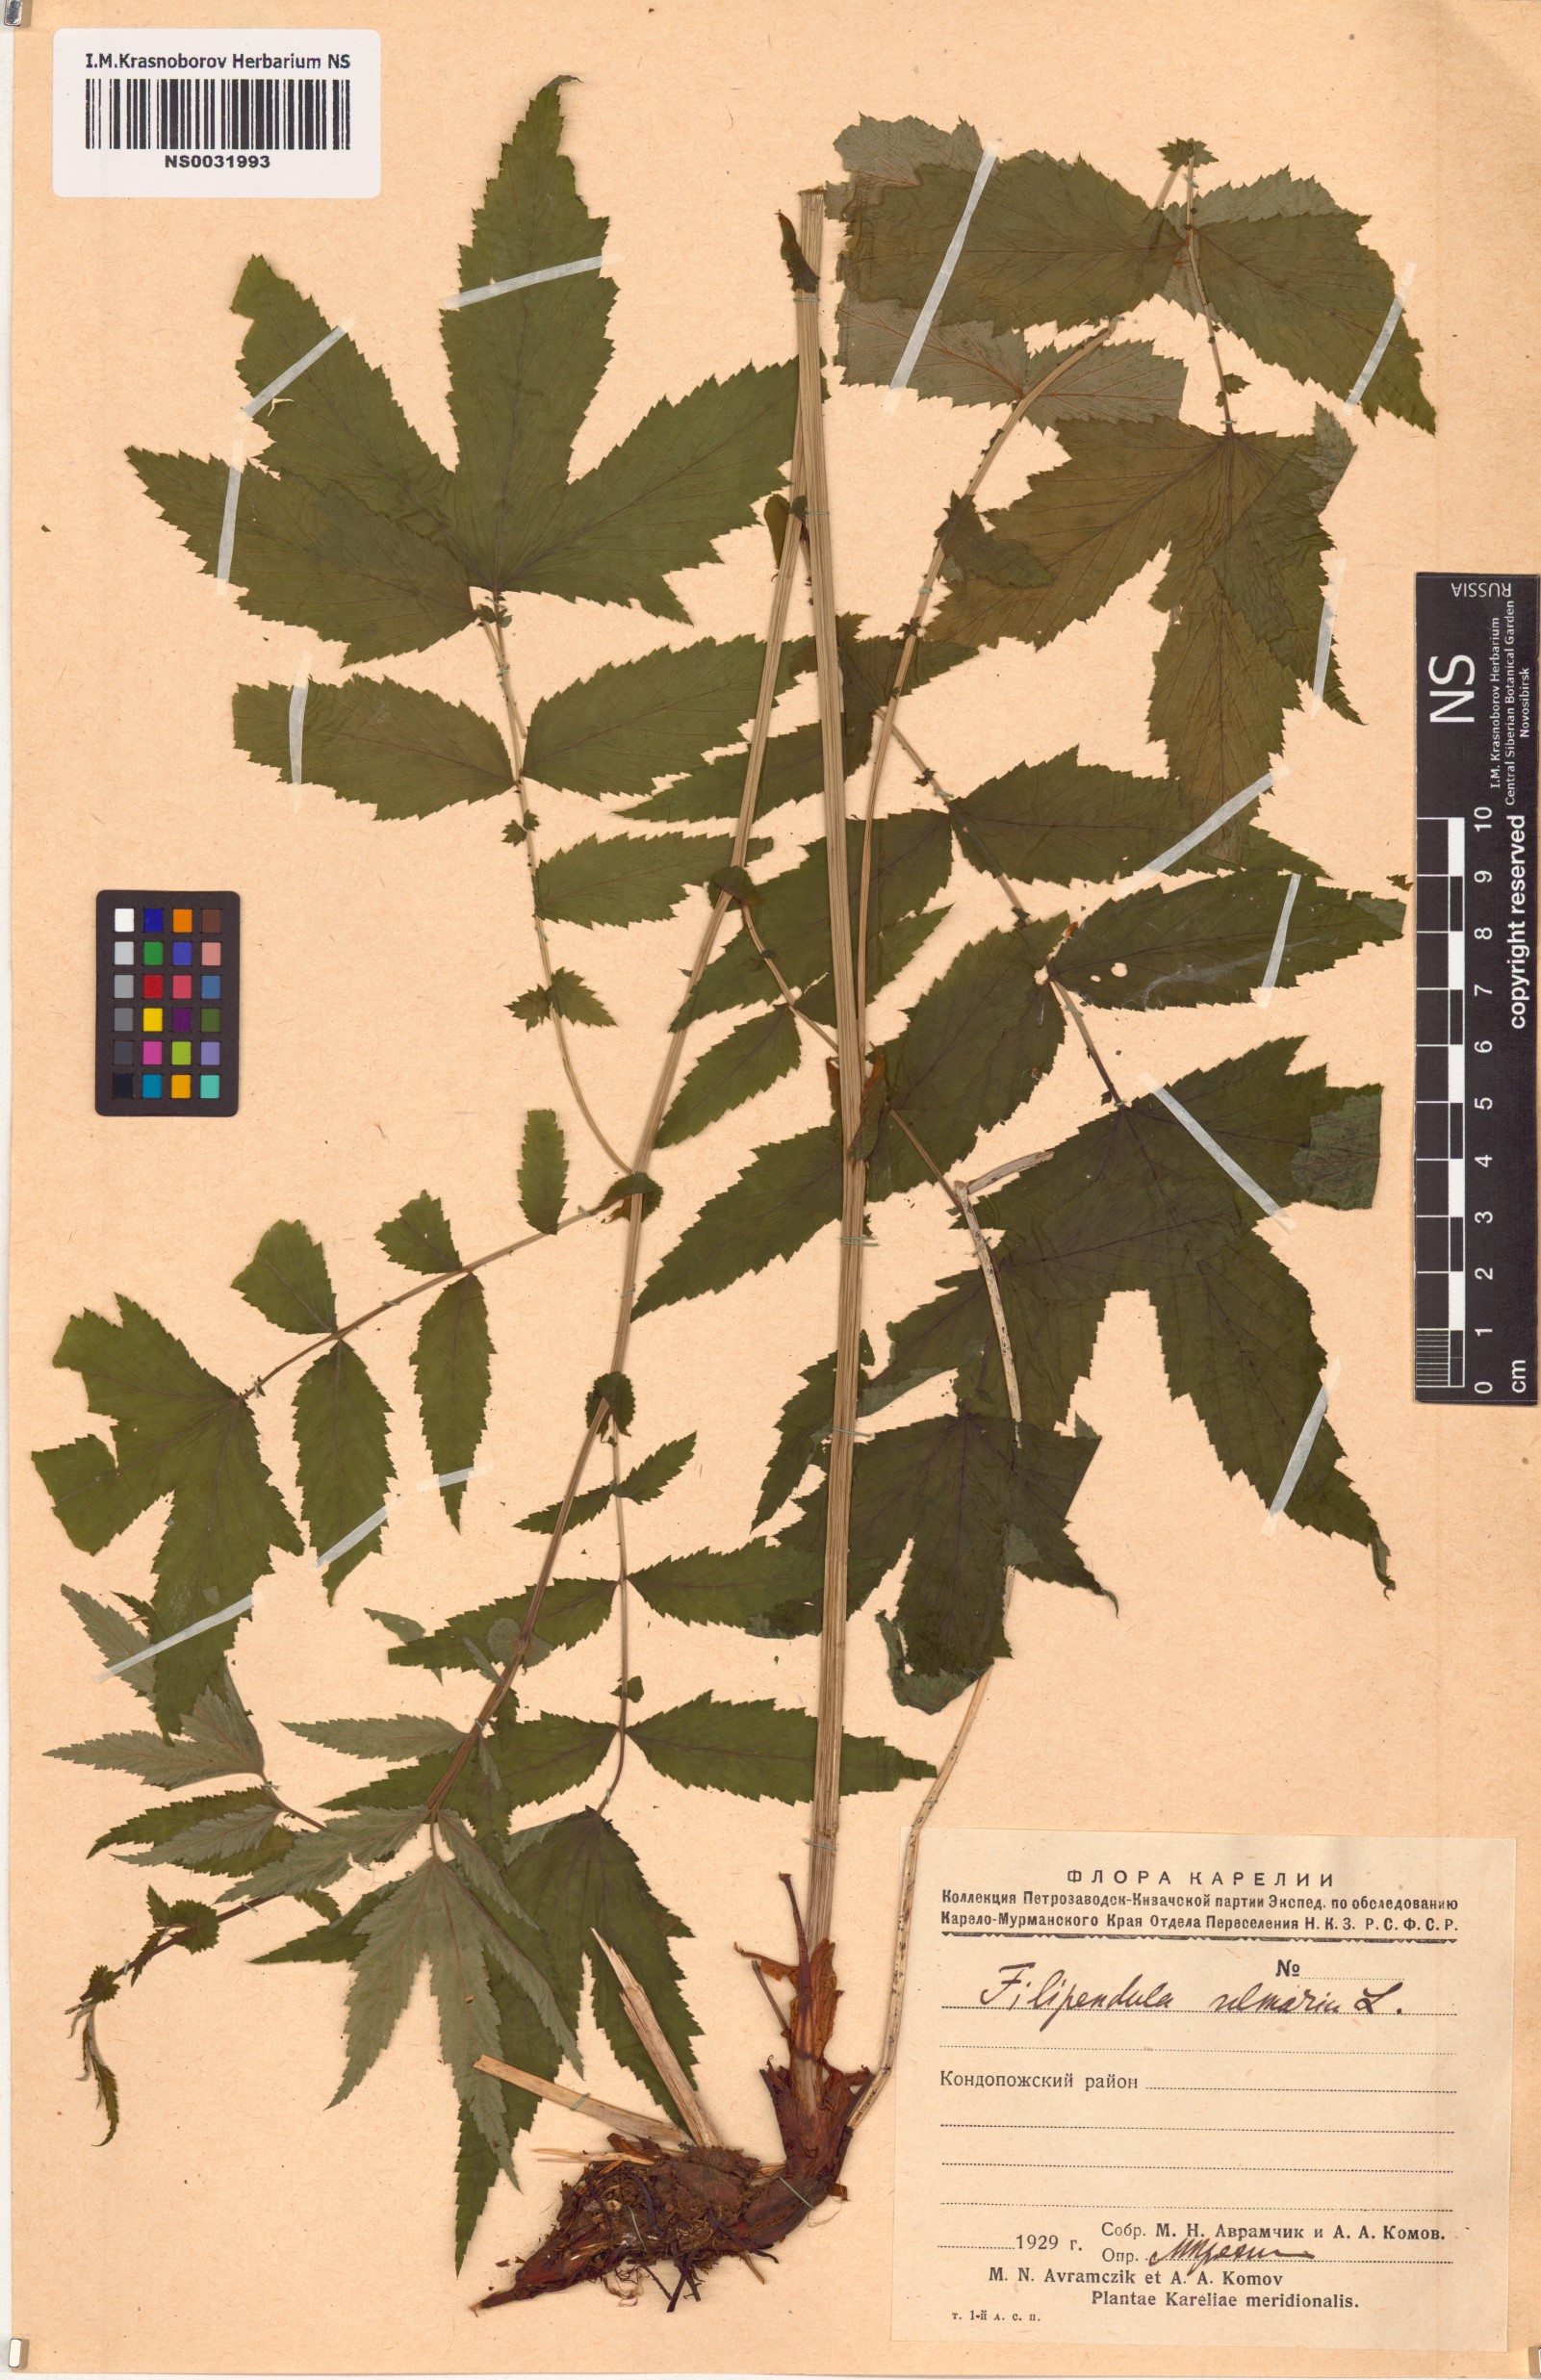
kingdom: Plantae
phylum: Tracheophyta
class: Magnoliopsida
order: Rosales
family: Rosaceae
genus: Filipendula
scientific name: Filipendula ulmaria
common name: Meadowsweet
